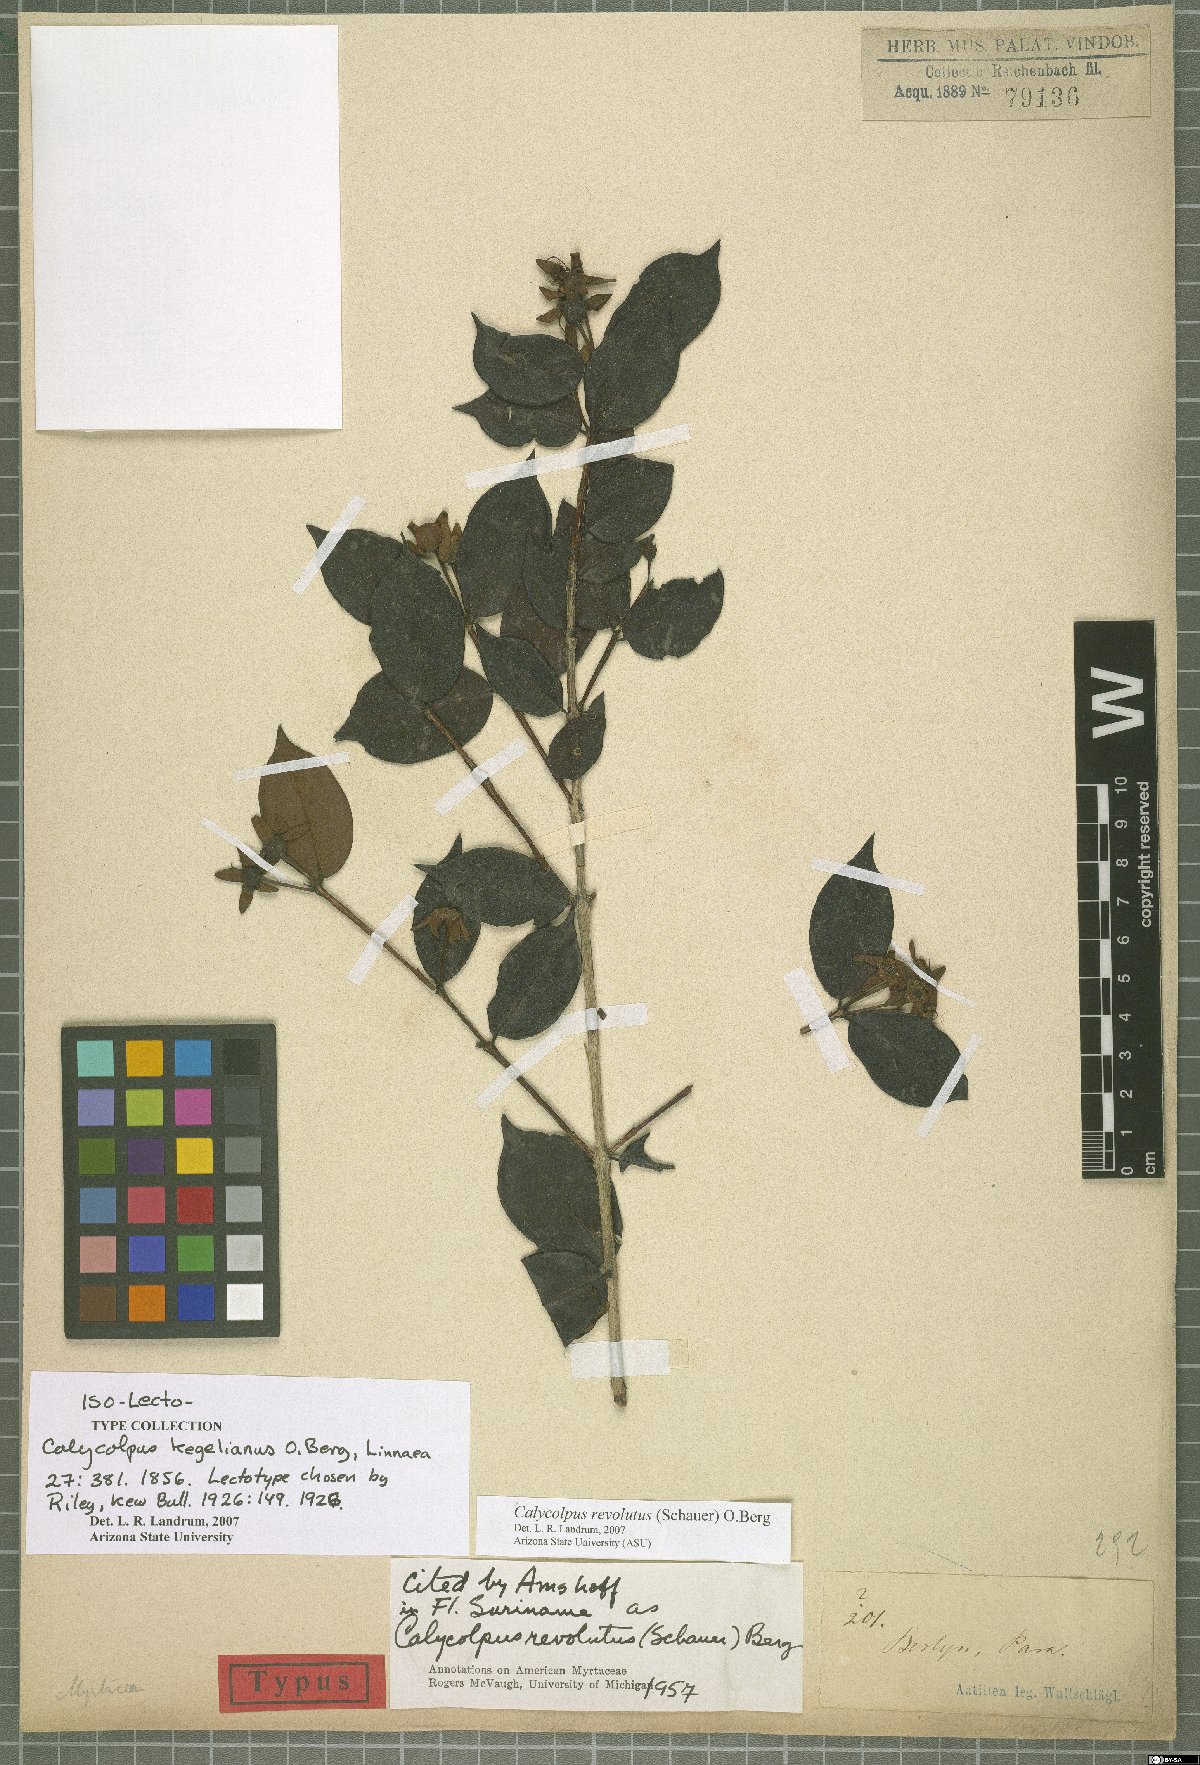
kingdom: Plantae
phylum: Tracheophyta
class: Magnoliopsida
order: Myrtales
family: Myrtaceae
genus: Calycolpus
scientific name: Calycolpus revolutus
